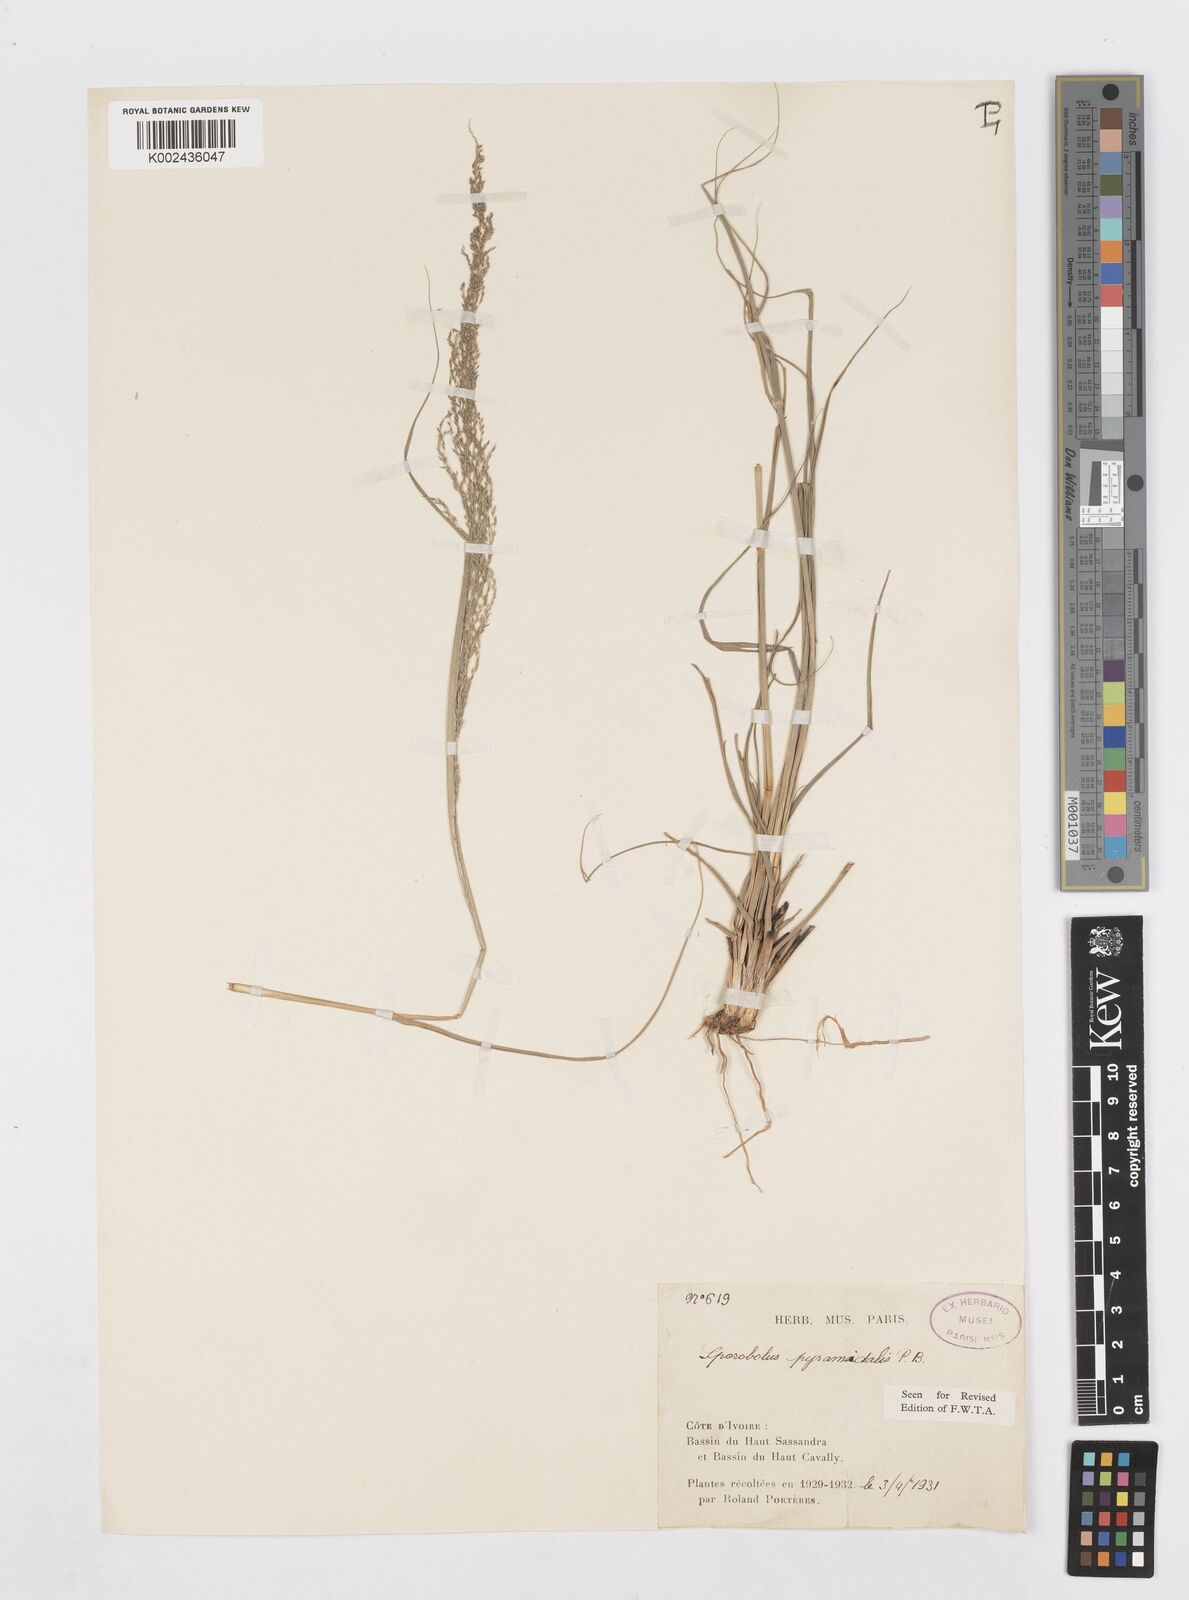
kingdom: Plantae
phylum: Tracheophyta
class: Liliopsida
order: Poales
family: Poaceae
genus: Sporobolus
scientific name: Sporobolus pyramidalis
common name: West indian dropseed
